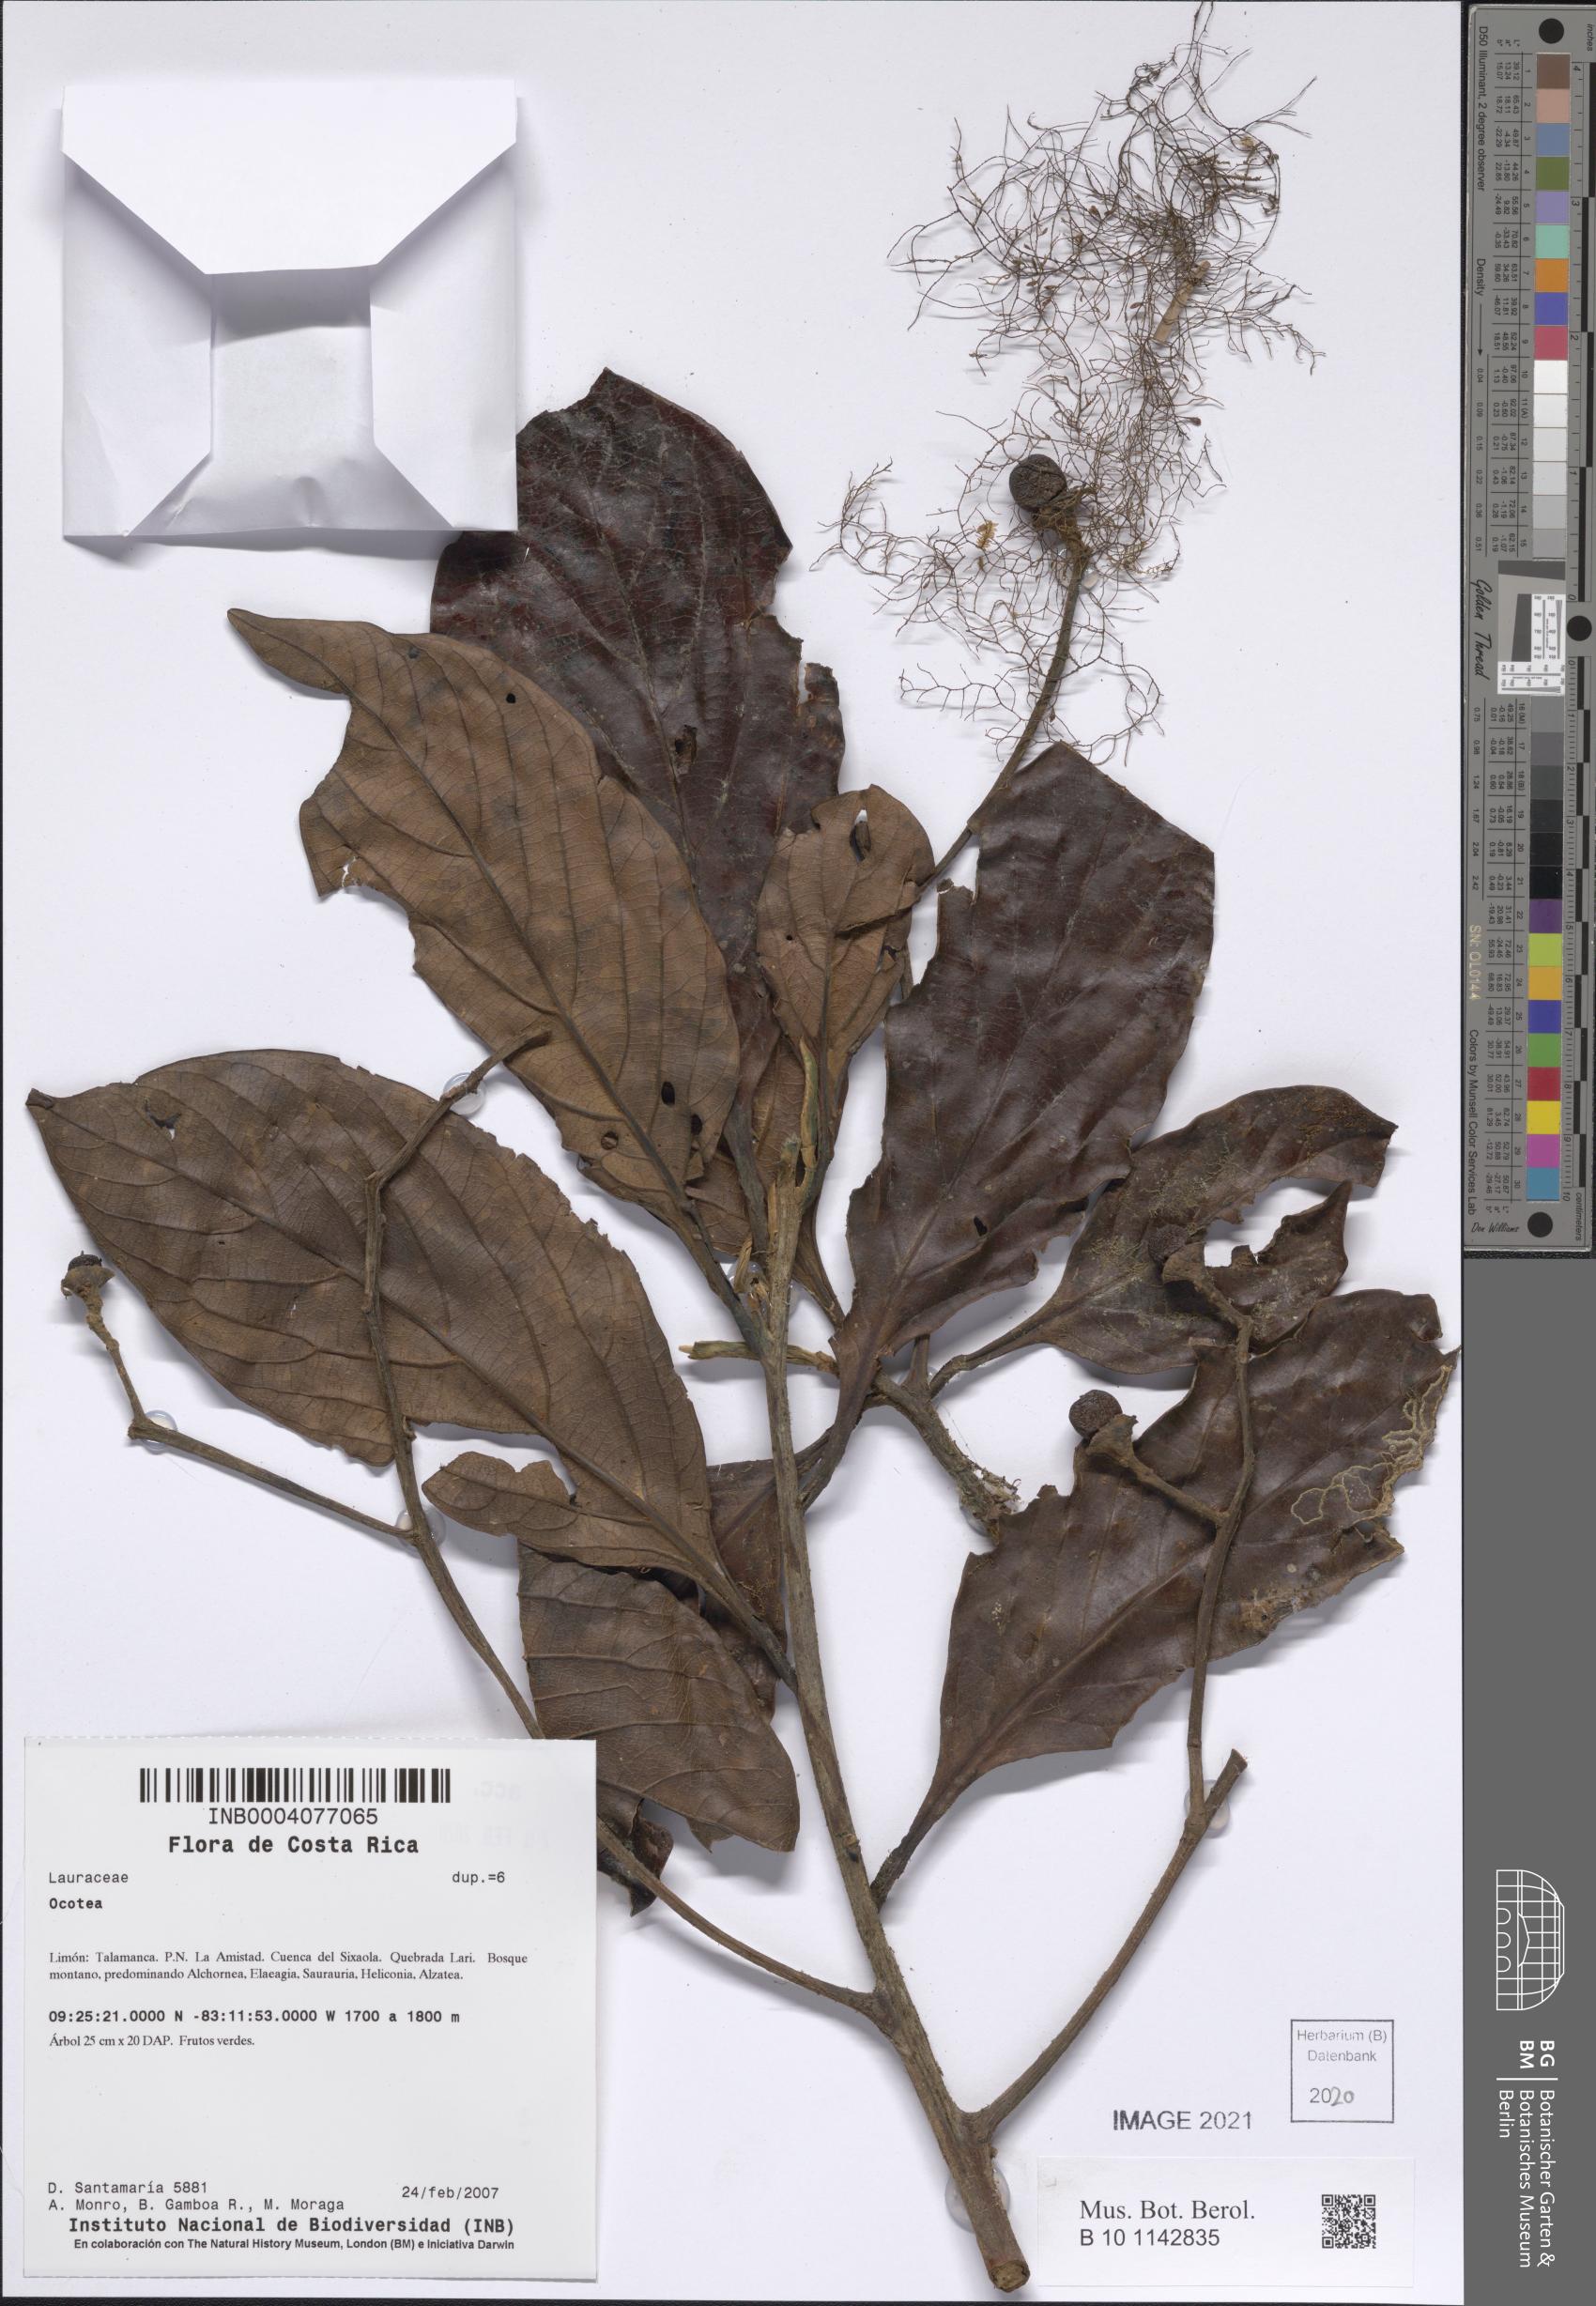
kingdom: Plantae
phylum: Tracheophyta
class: Magnoliopsida
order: Laurales
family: Lauraceae
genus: Ocotea
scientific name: Ocotea
